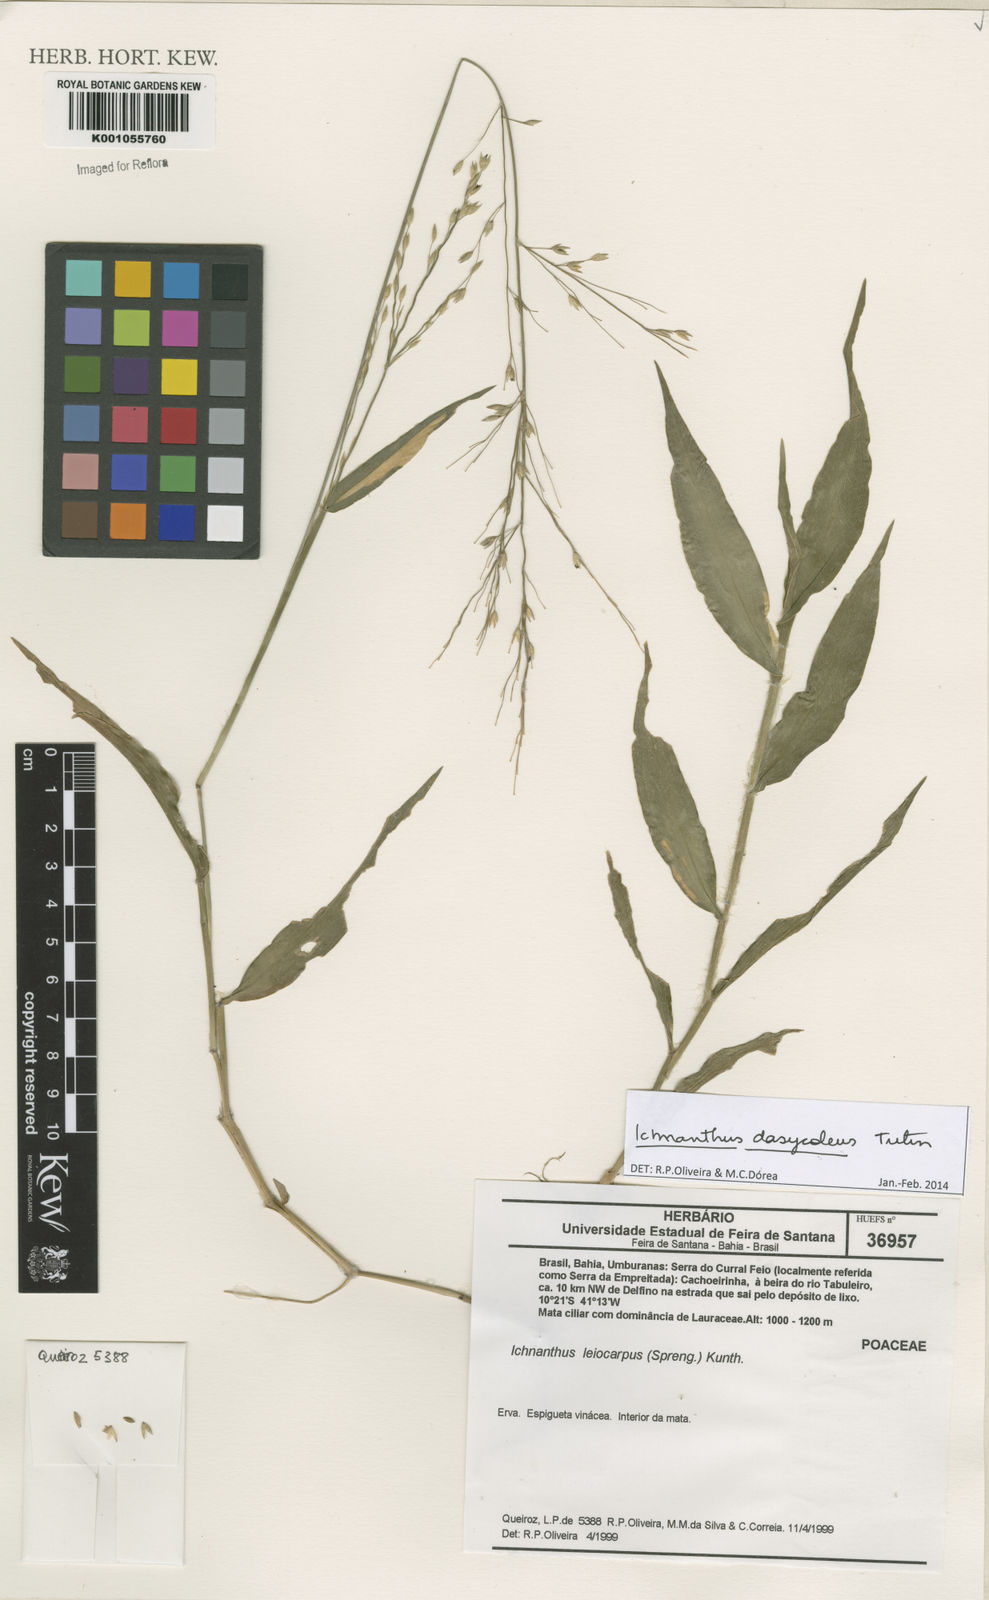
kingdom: Plantae
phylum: Tracheophyta
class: Liliopsida
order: Poales
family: Poaceae
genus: Ichnanthus
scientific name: Ichnanthus dasycoleus
